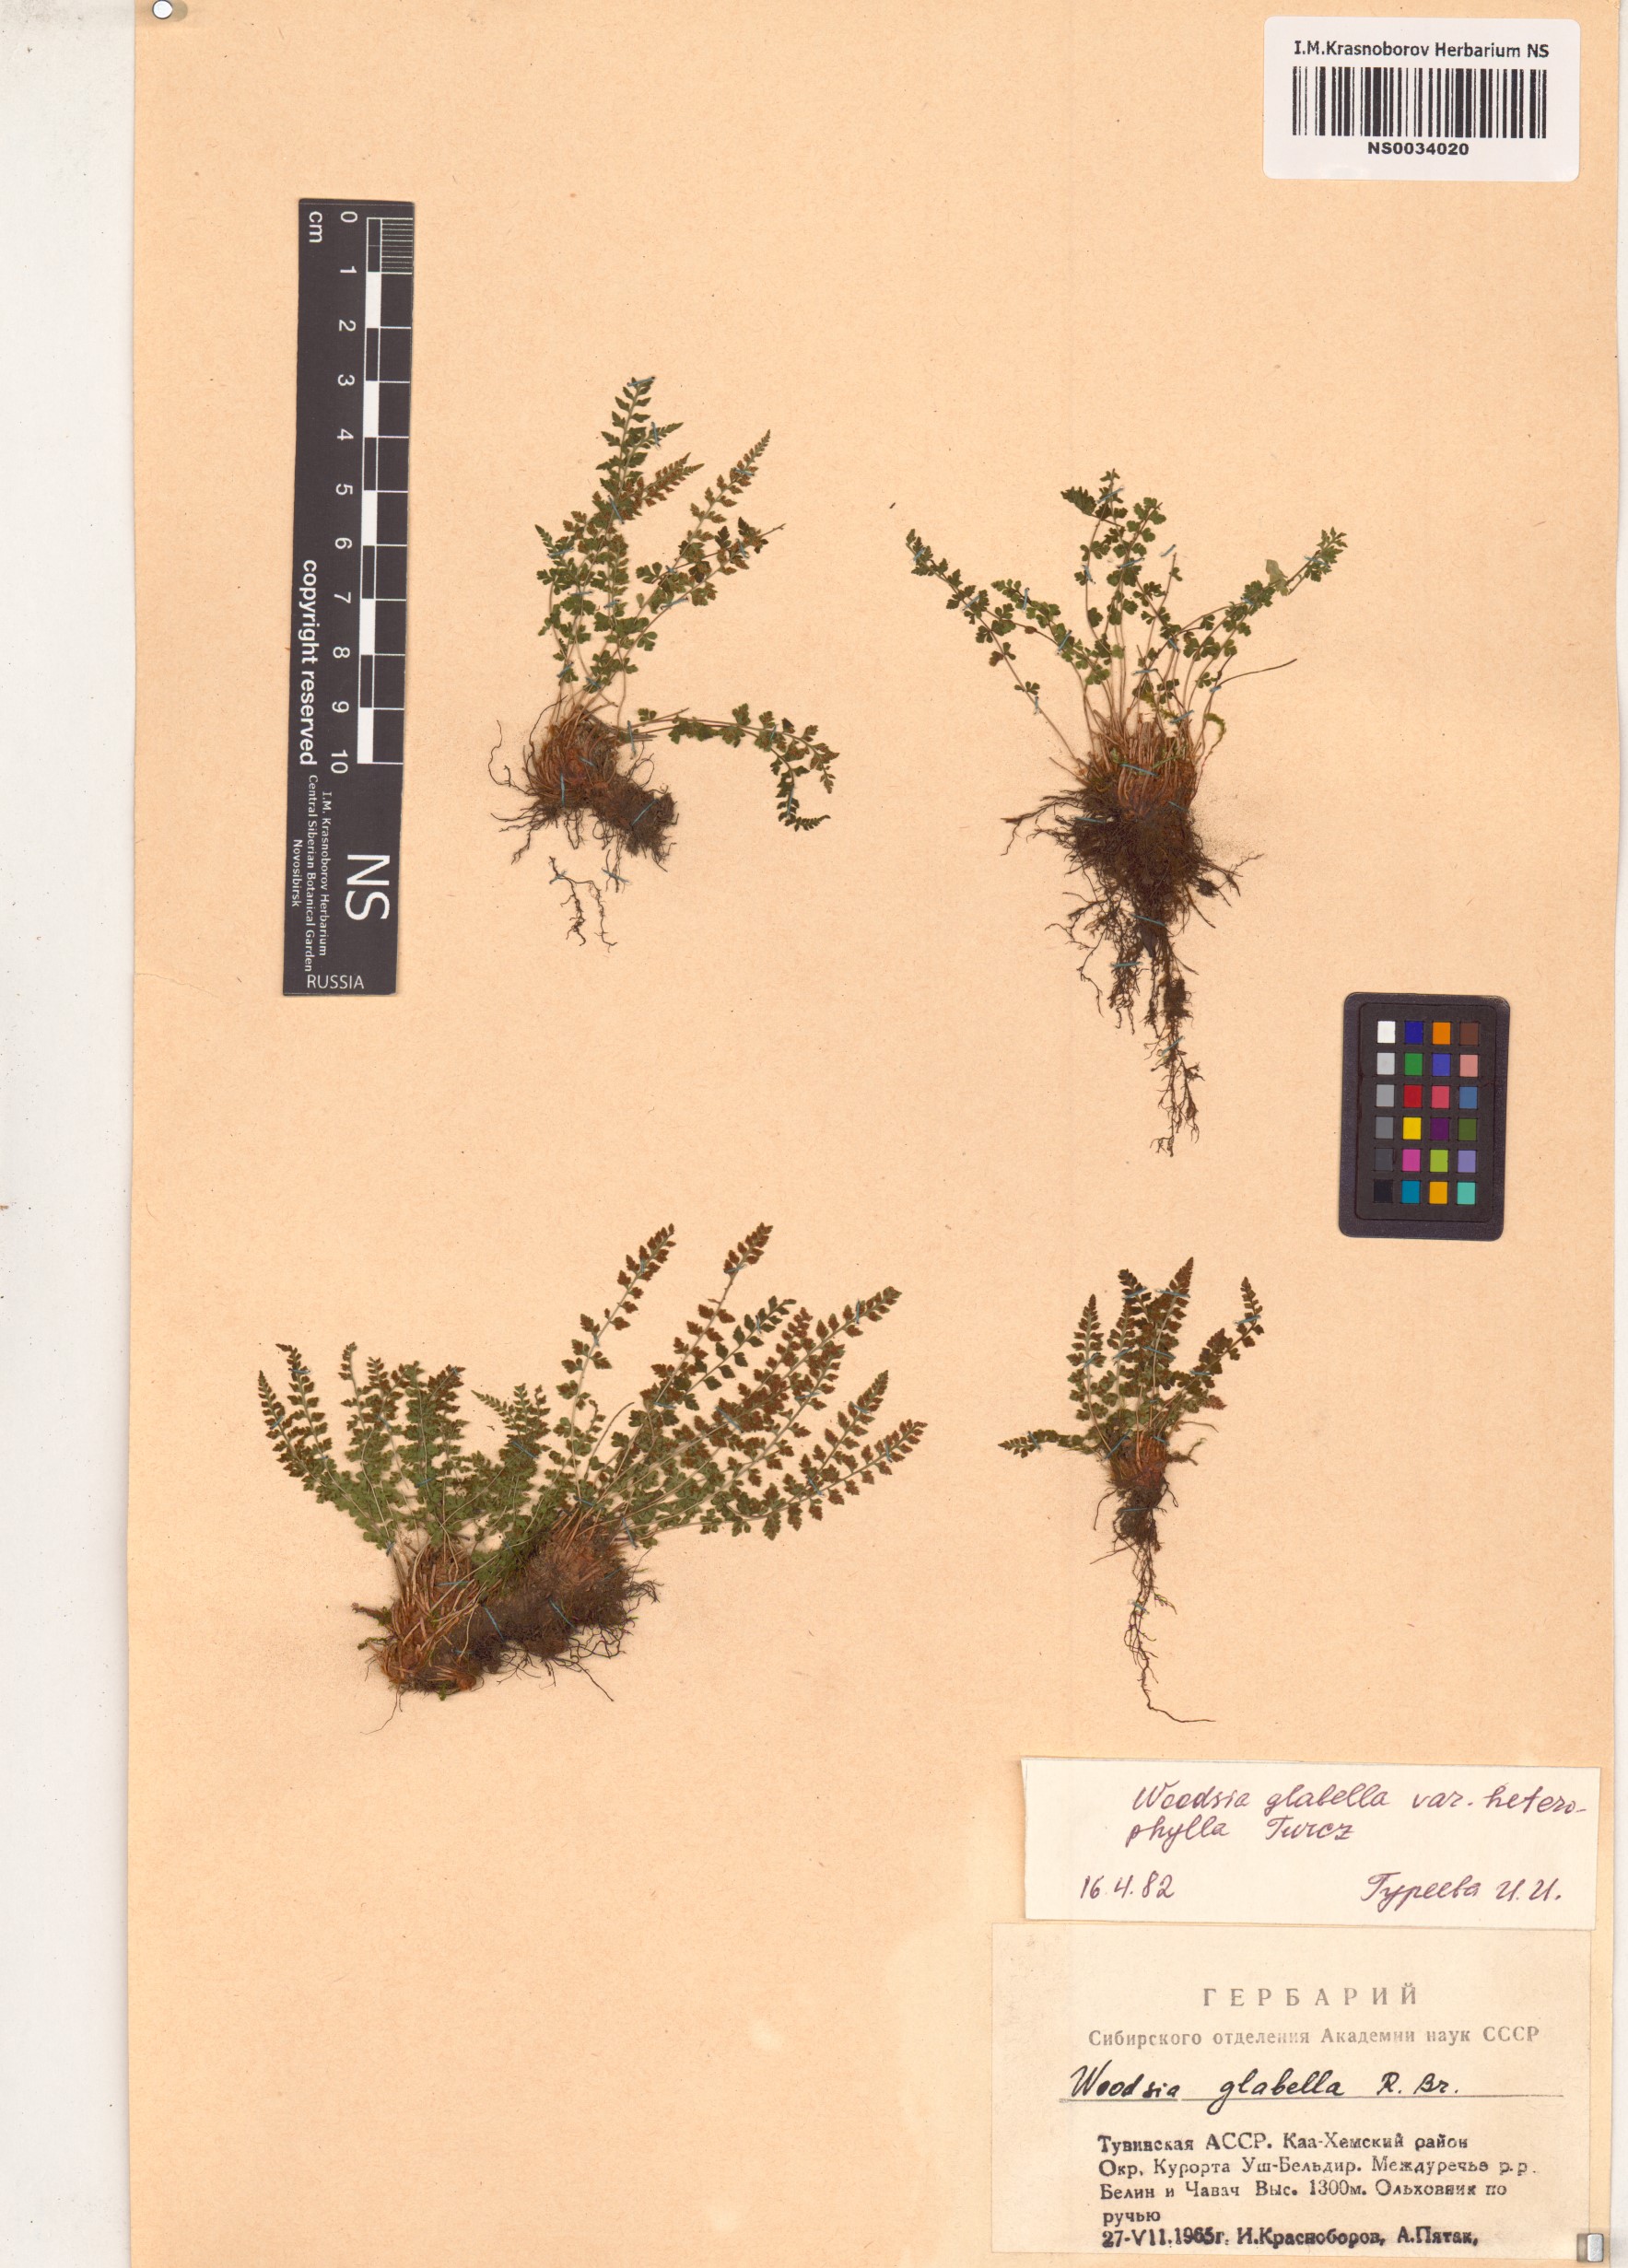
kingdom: Plantae
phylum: Tracheophyta
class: Polypodiopsida
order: Polypodiales
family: Woodsiaceae
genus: Woodsia
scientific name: Woodsia pulchella
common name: Graceful woodsia
